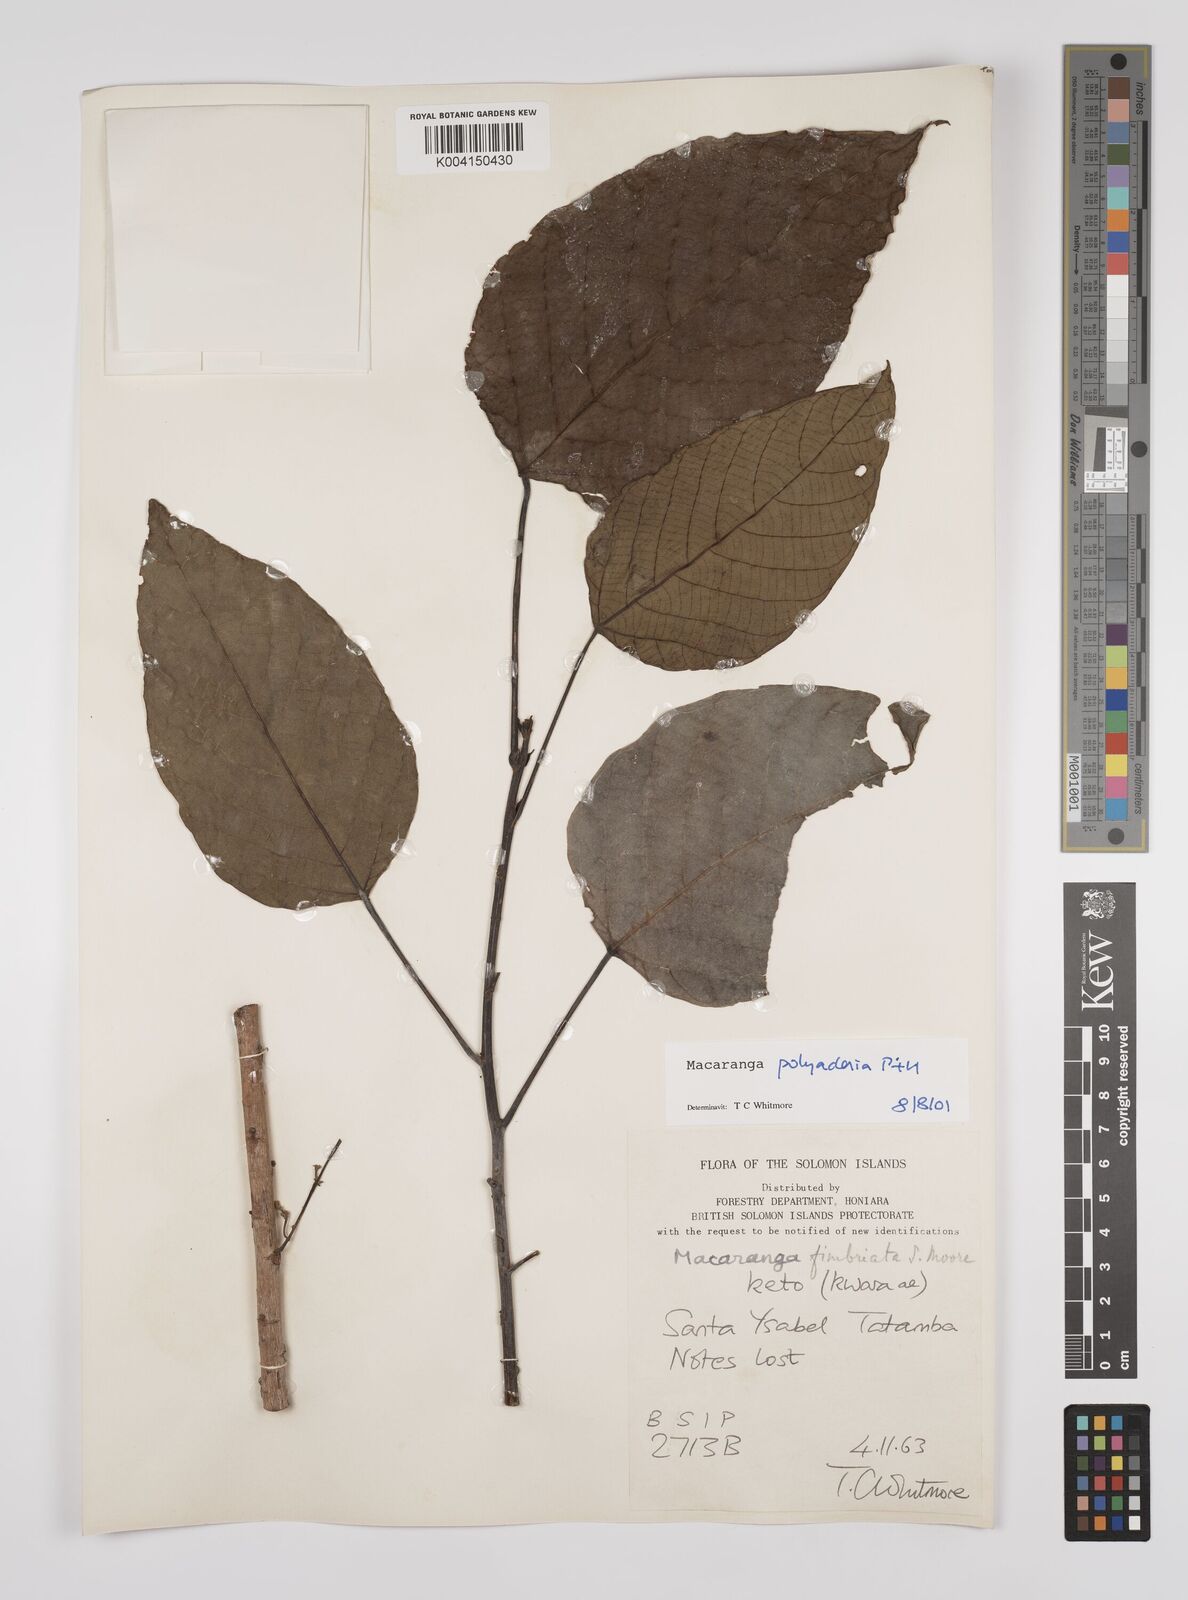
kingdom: Plantae
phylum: Tracheophyta
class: Magnoliopsida
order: Malpighiales
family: Euphorbiaceae
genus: Macaranga
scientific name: Macaranga polyadenia
